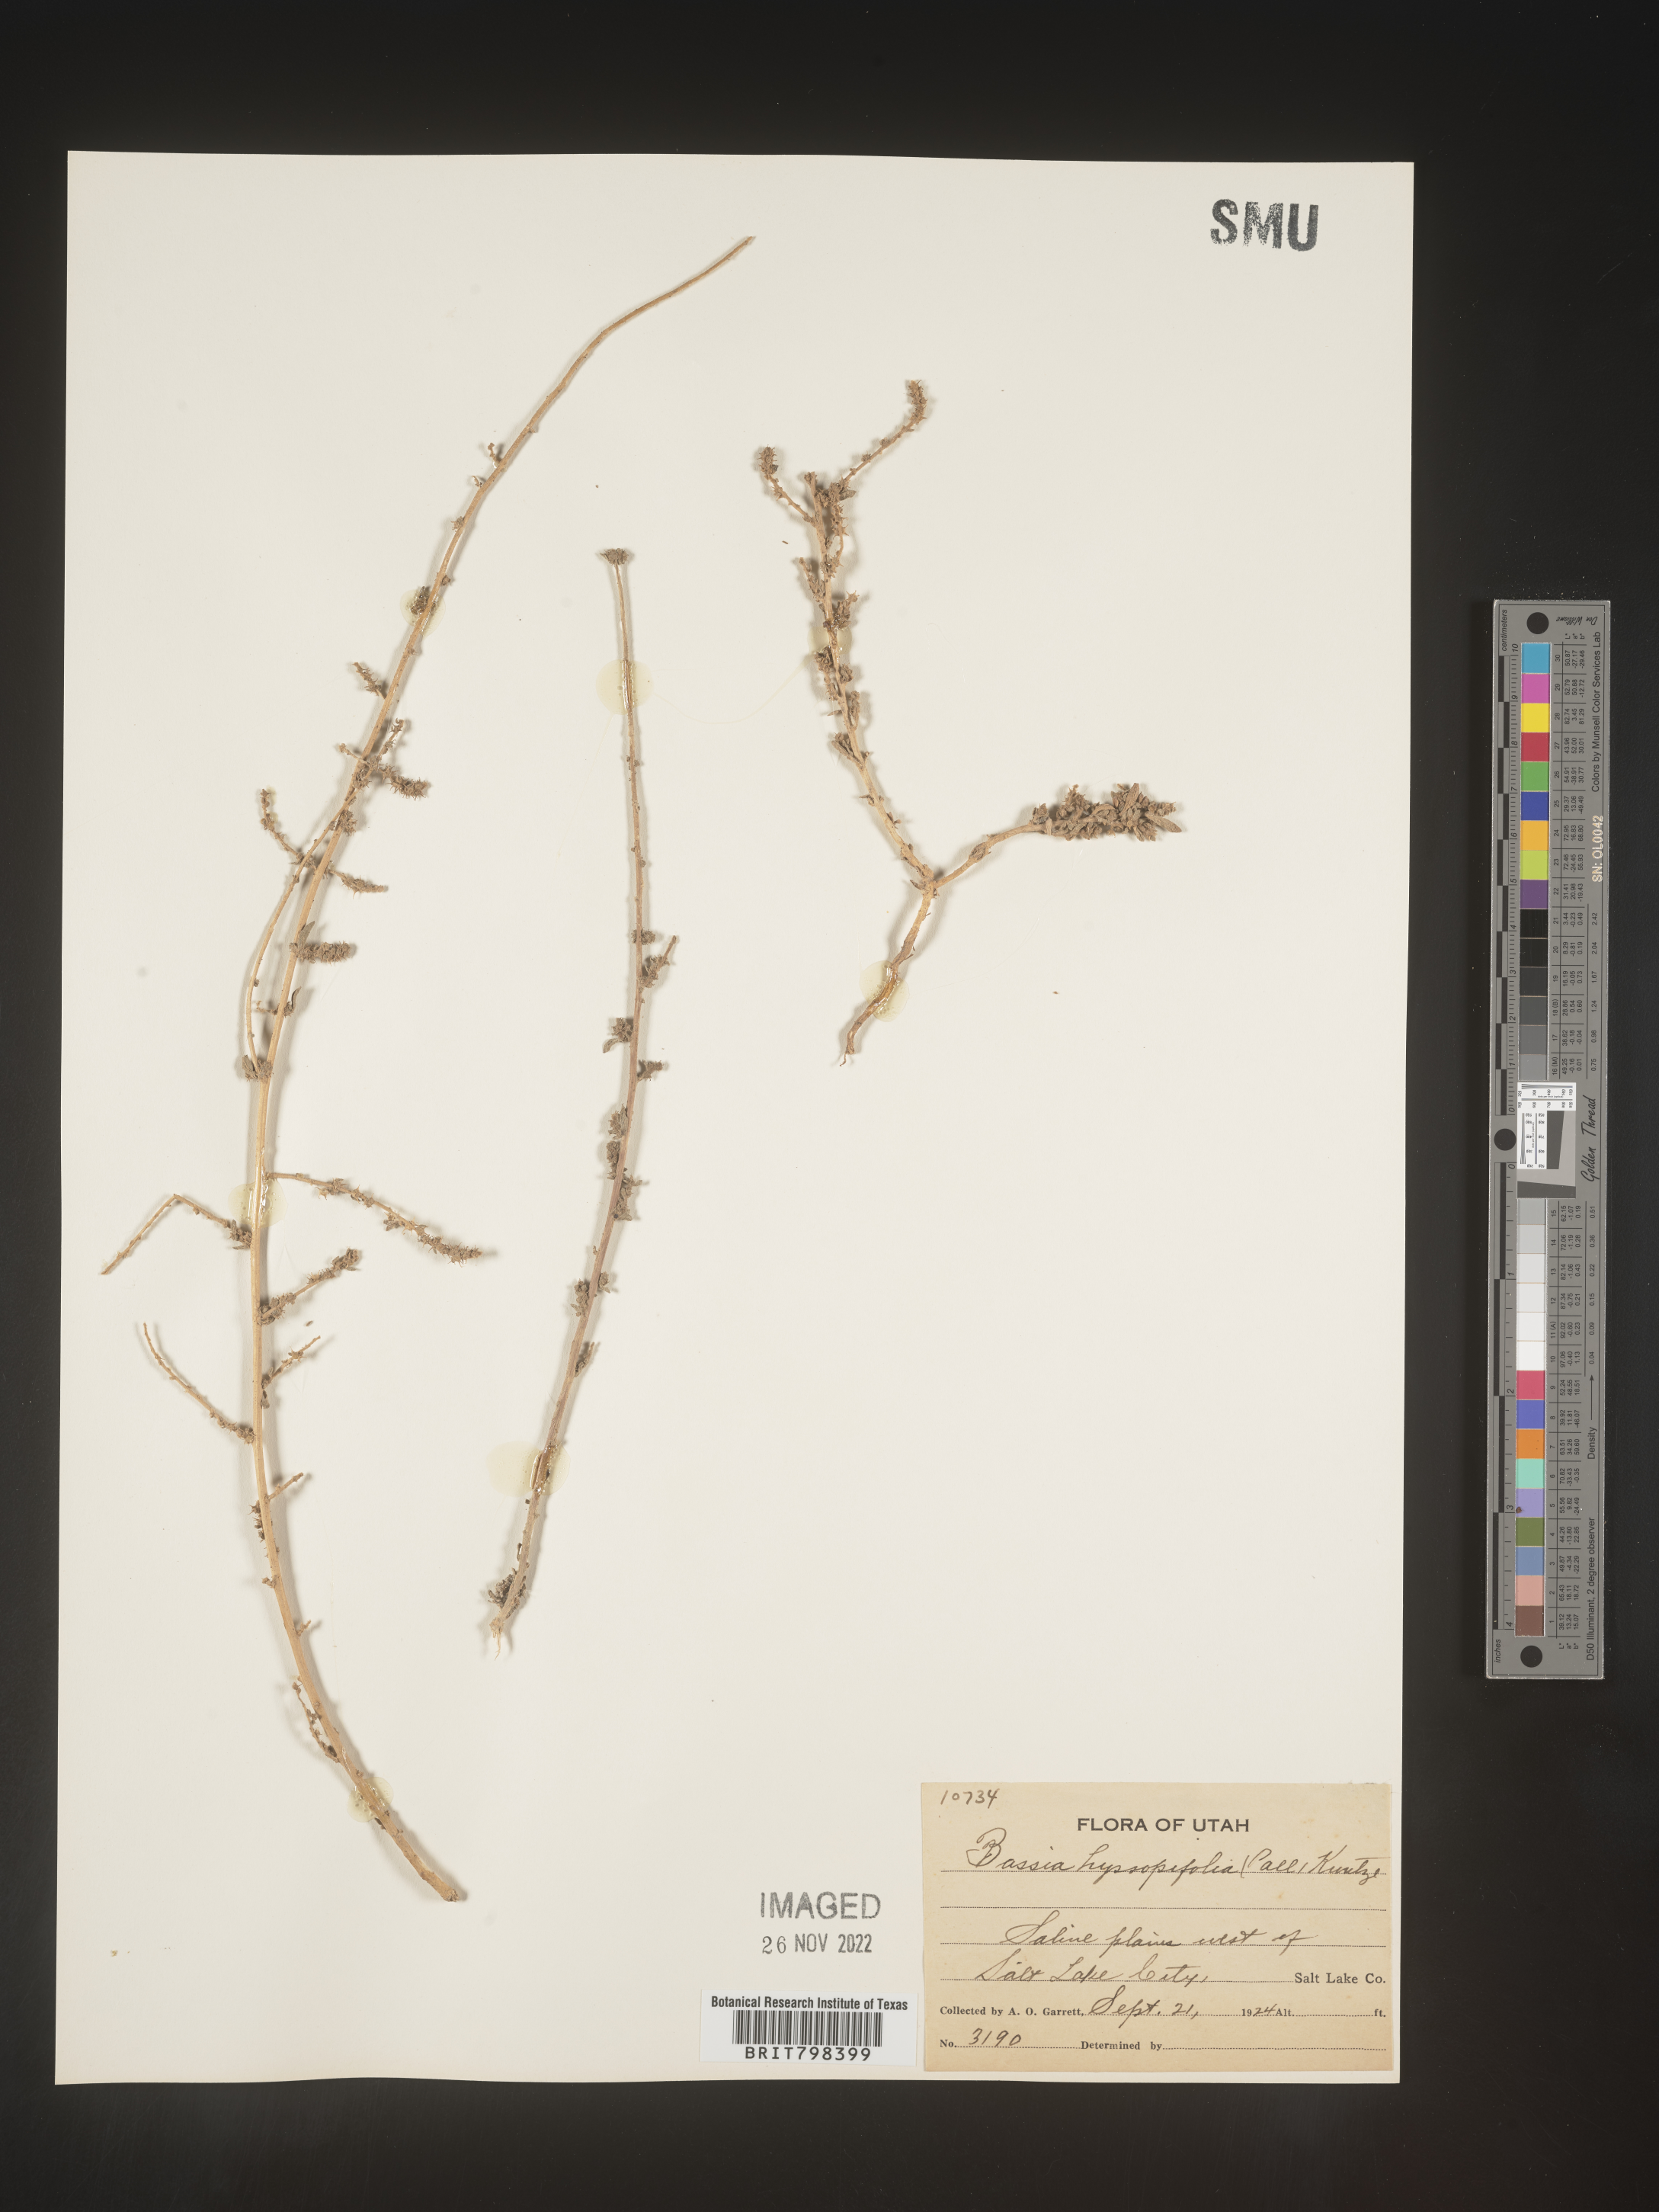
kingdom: Plantae
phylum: Tracheophyta
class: Magnoliopsida
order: Caryophyllales
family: Amaranthaceae
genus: Bassia
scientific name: Bassia scoparia
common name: Belvedere
